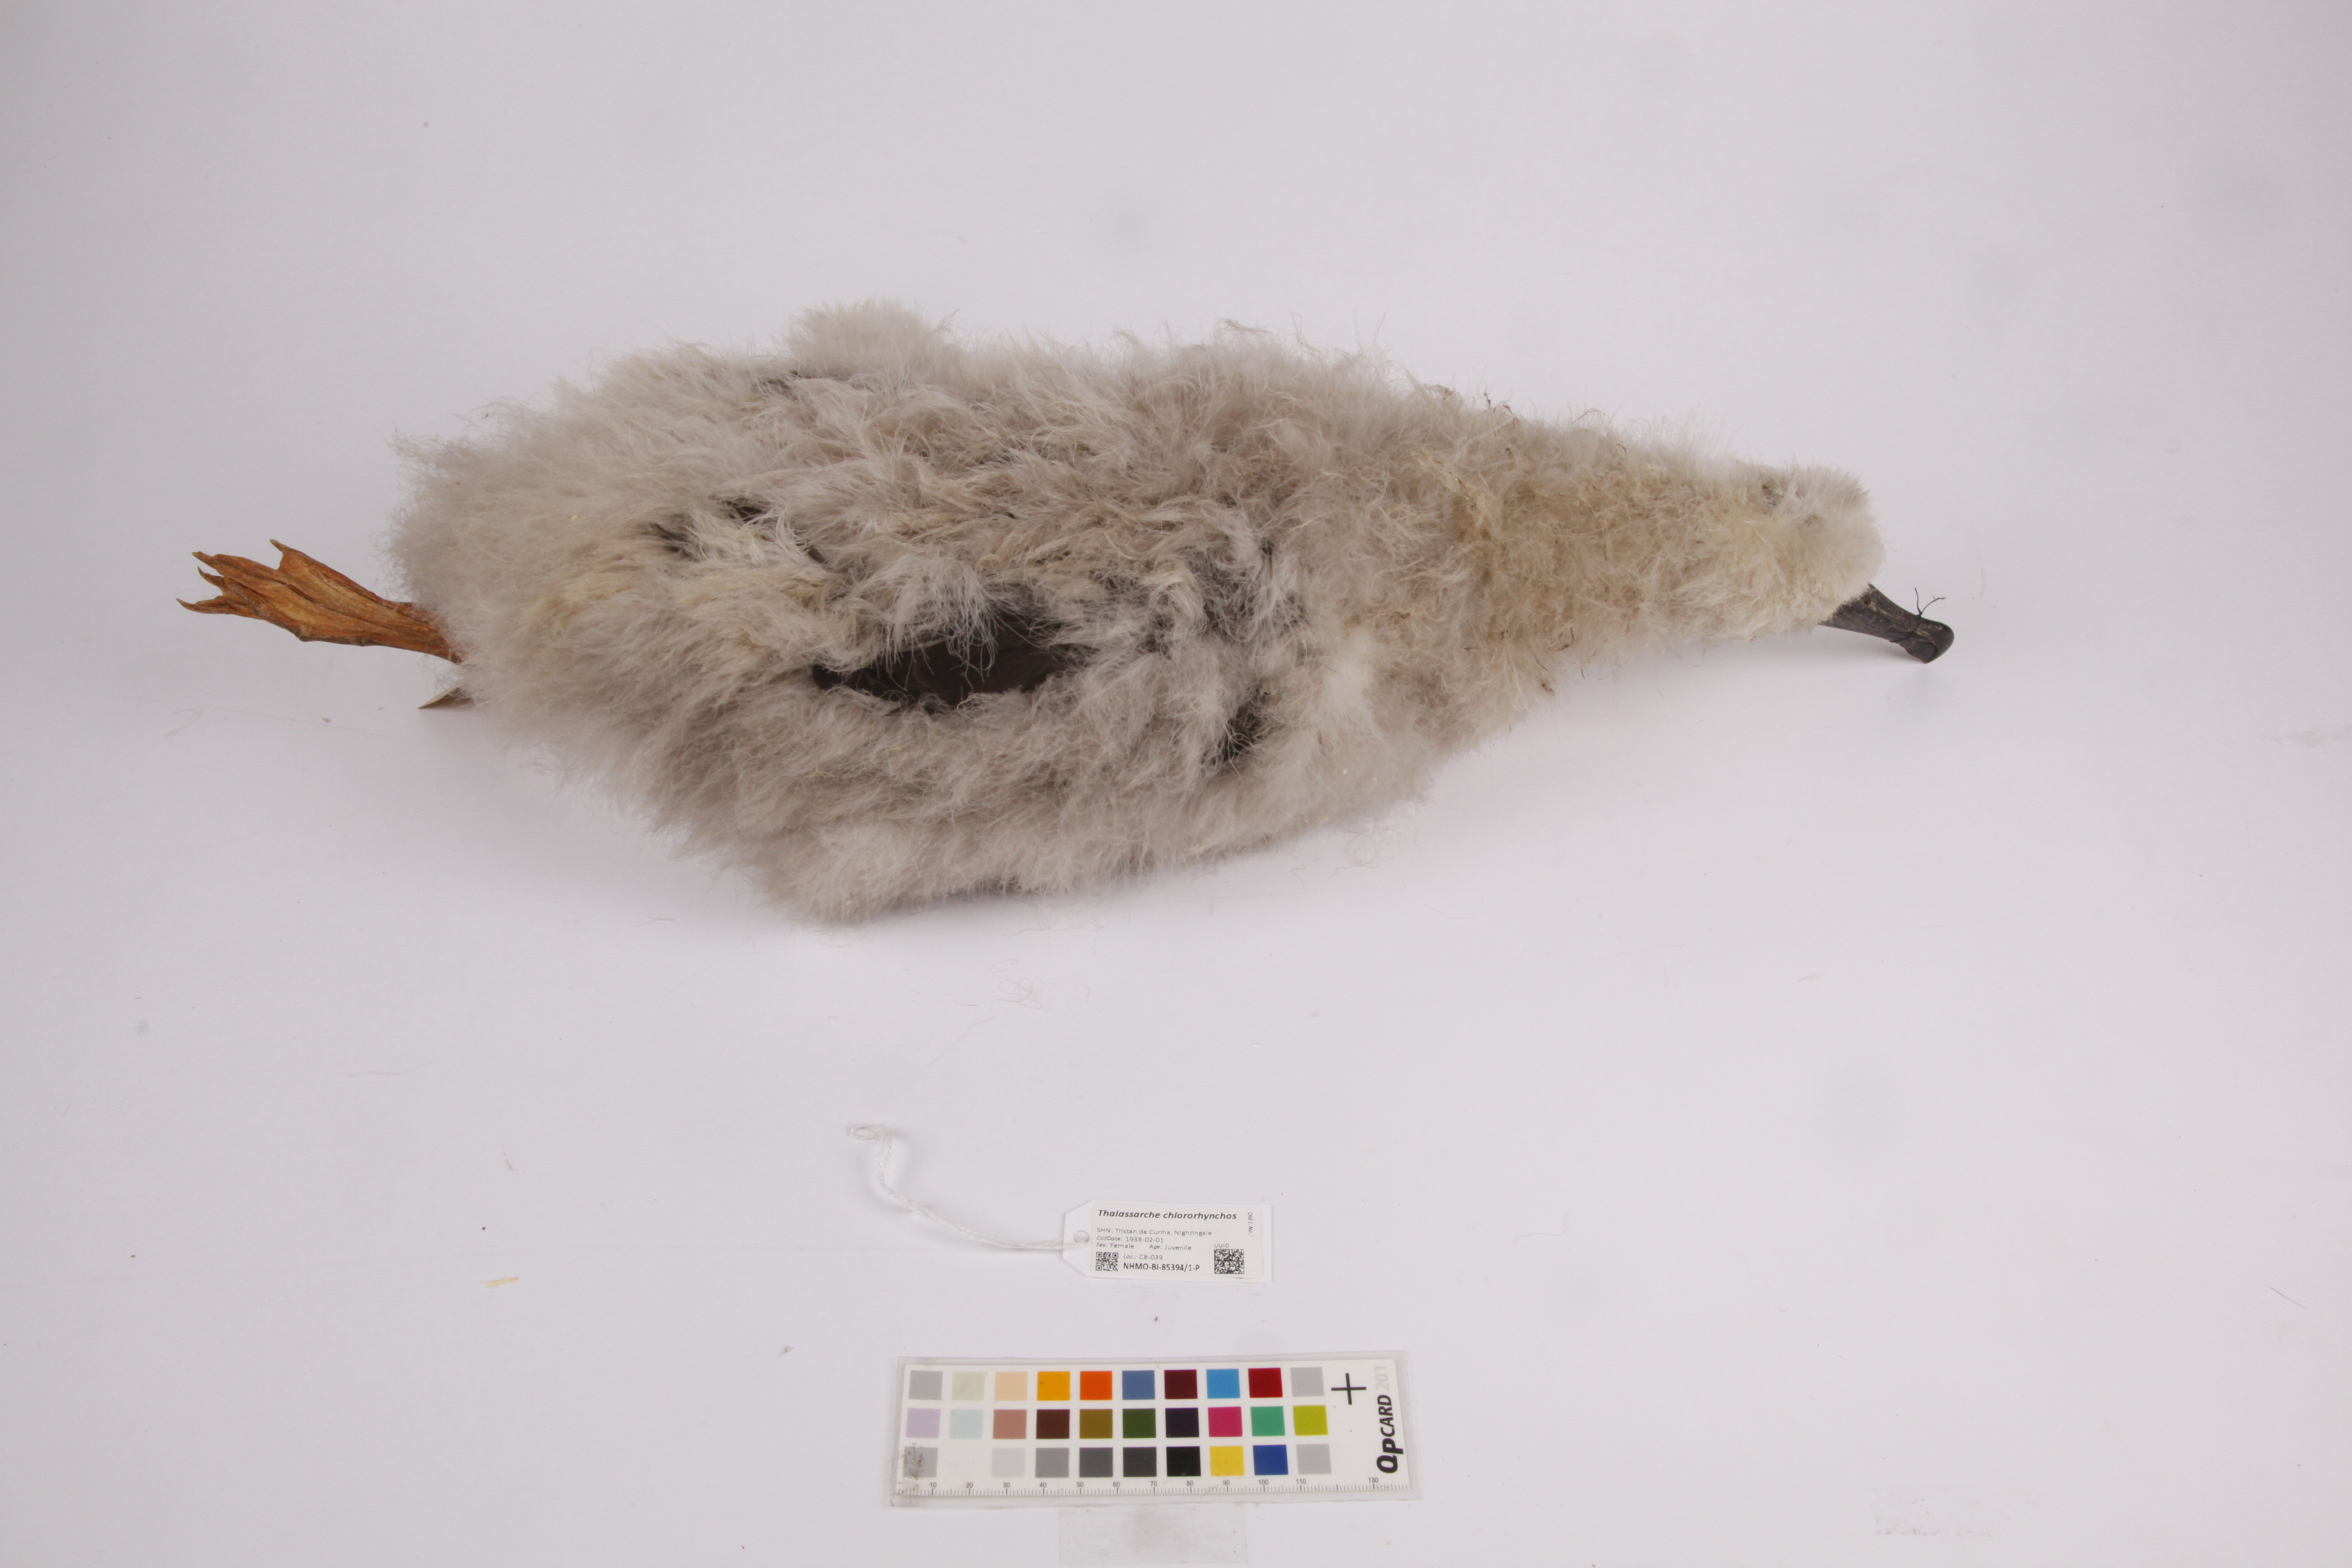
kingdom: Animalia
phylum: Chordata
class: Aves
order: Procellariiformes
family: Diomedeidae
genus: Thalassarche
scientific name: Thalassarche chlororhynchos
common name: Atlantic yellow-nosed albatross
